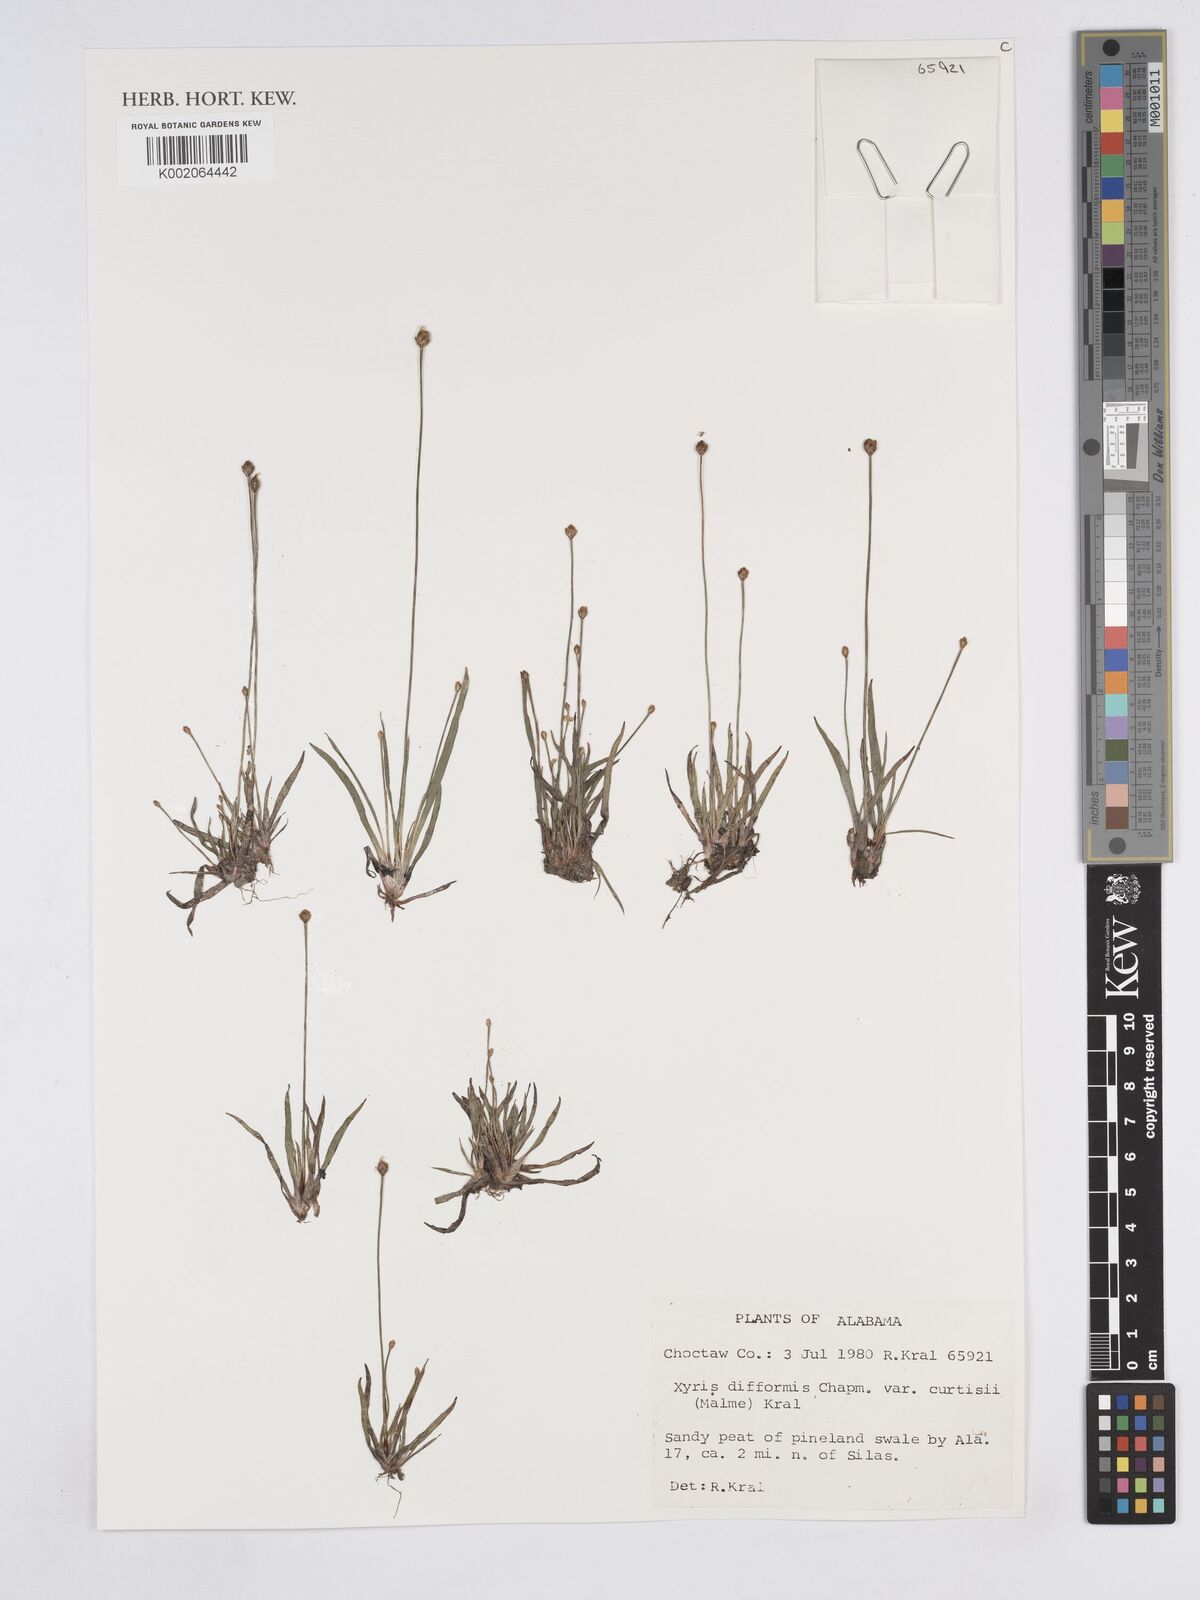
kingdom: Plantae
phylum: Tracheophyta
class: Liliopsida
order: Poales
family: Xyridaceae
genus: Xyris
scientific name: Xyris difformis
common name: Bog yellow-eyed-grass
